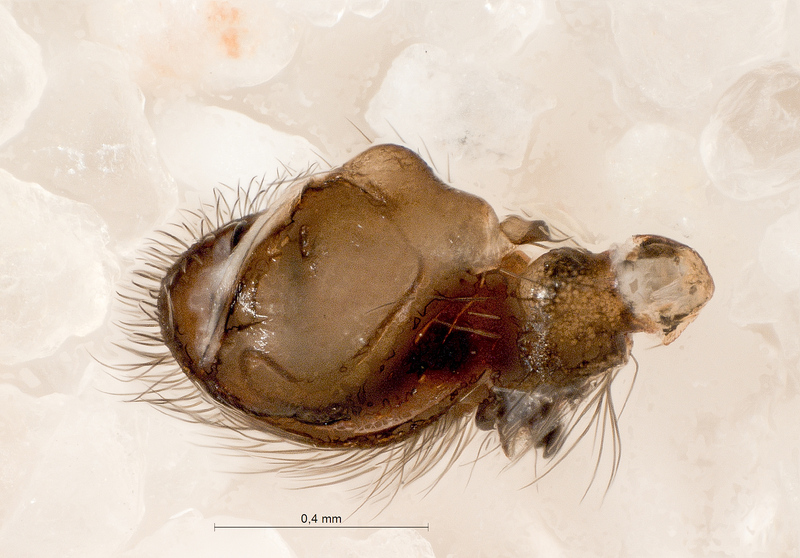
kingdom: Animalia
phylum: Arthropoda
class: Arachnida
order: Araneae
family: Titanoecidae
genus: Titanoeca
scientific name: Titanoeca spominima
